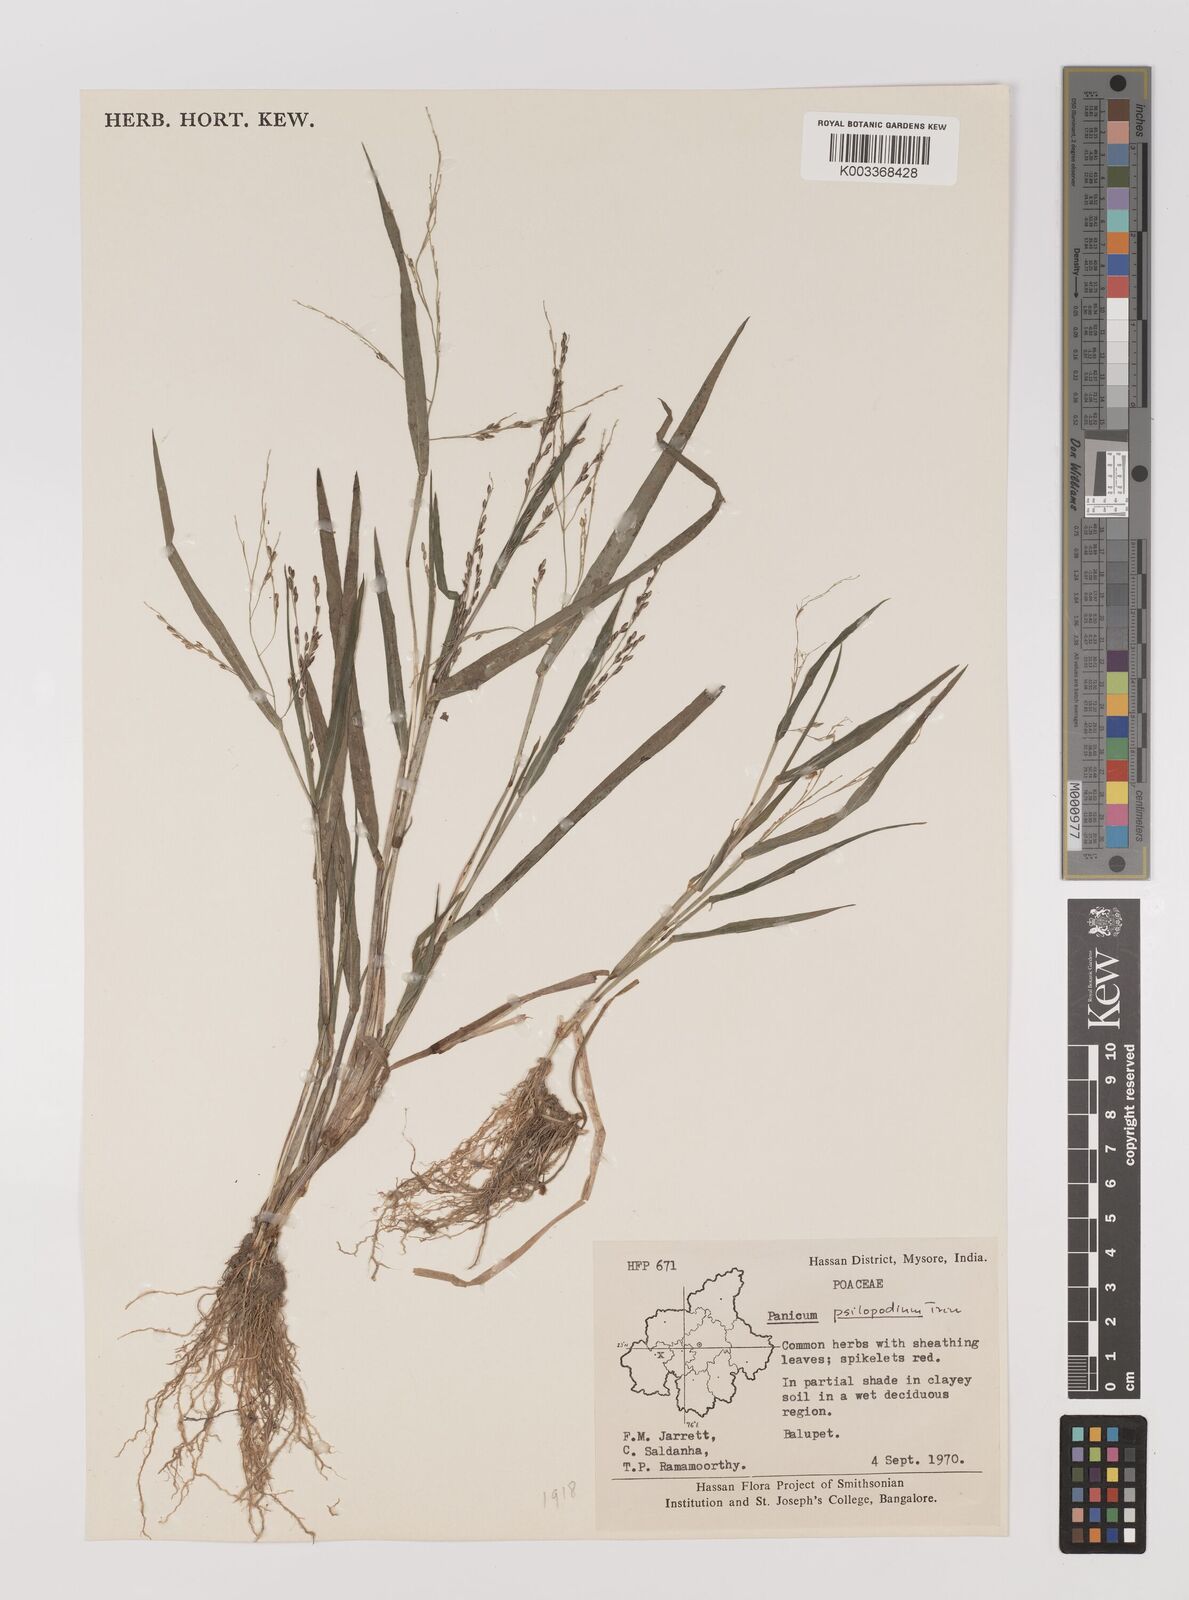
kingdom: Plantae
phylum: Tracheophyta
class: Liliopsida
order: Poales
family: Poaceae
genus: Panicum
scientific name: Panicum sumatrense
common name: Little millet
